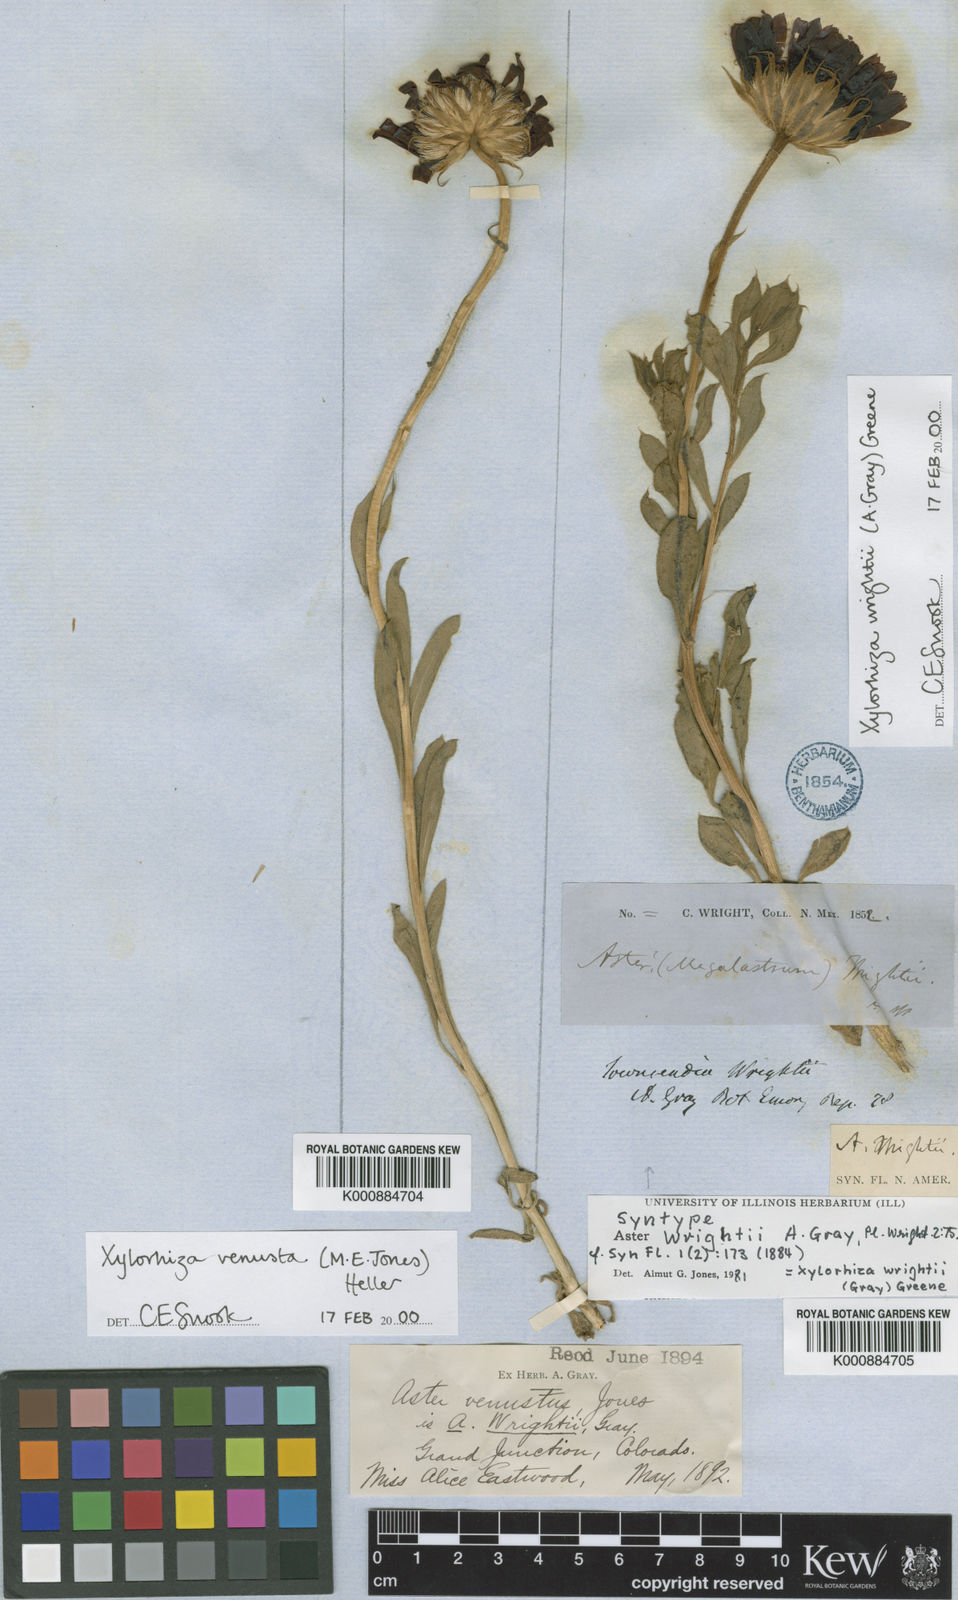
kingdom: Plantae
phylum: Tracheophyta
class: Magnoliopsida
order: Asterales
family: Asteraceae
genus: Xylorhiza
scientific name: Xylorhiza
